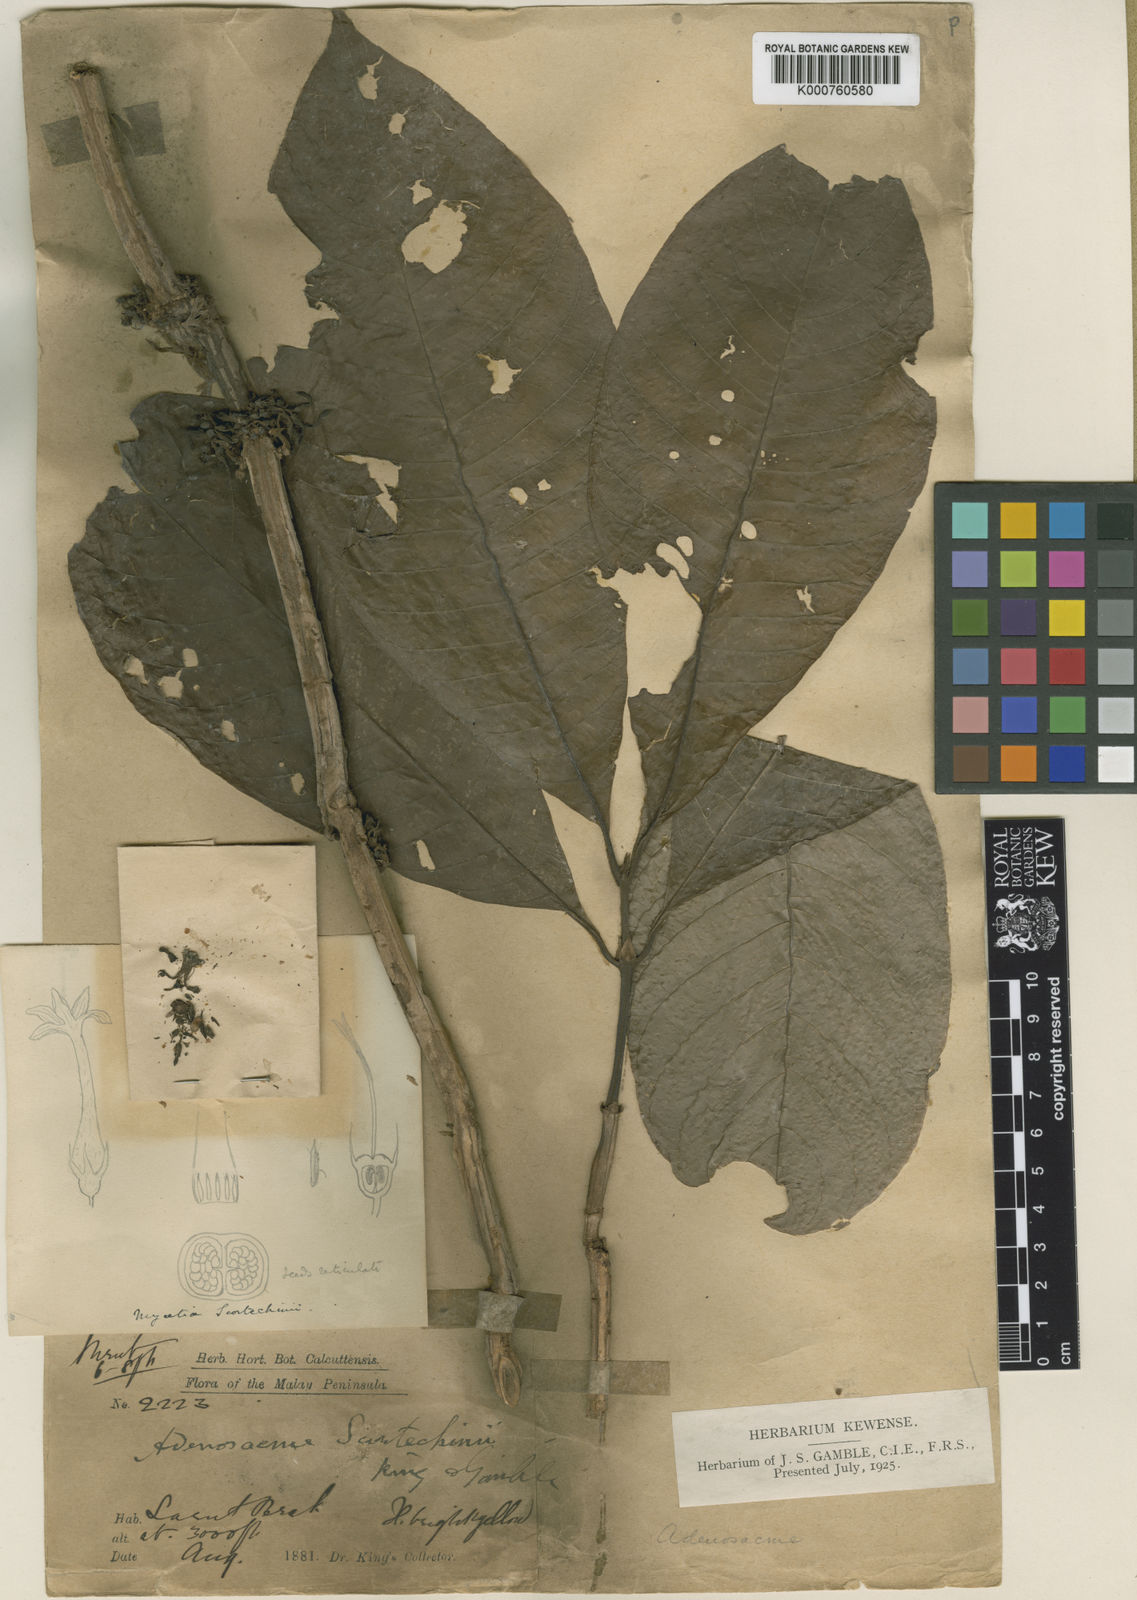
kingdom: Plantae
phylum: Tracheophyta
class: Magnoliopsida
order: Gentianales
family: Rubiaceae
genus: Mycetia
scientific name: Mycetia cauliflora
